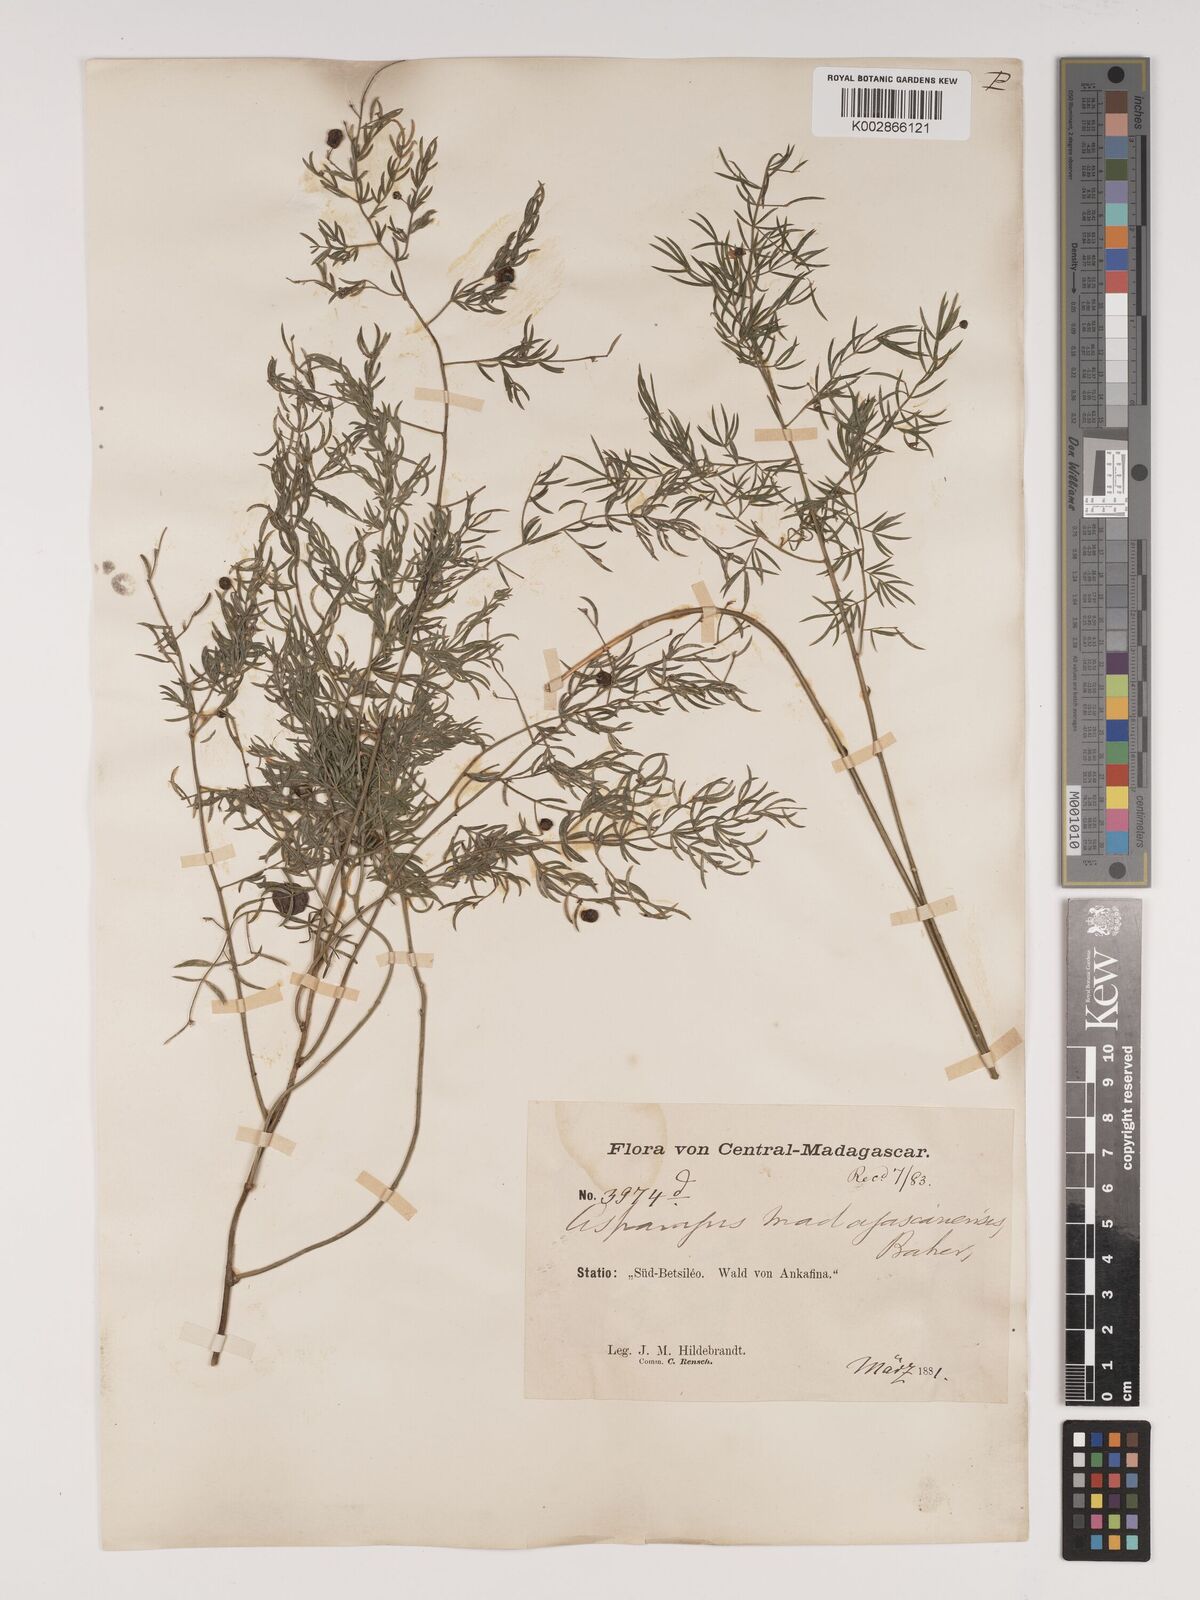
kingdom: Plantae
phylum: Tracheophyta
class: Liliopsida
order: Asparagales
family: Asparagaceae
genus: Asparagus
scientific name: Asparagus simulans
